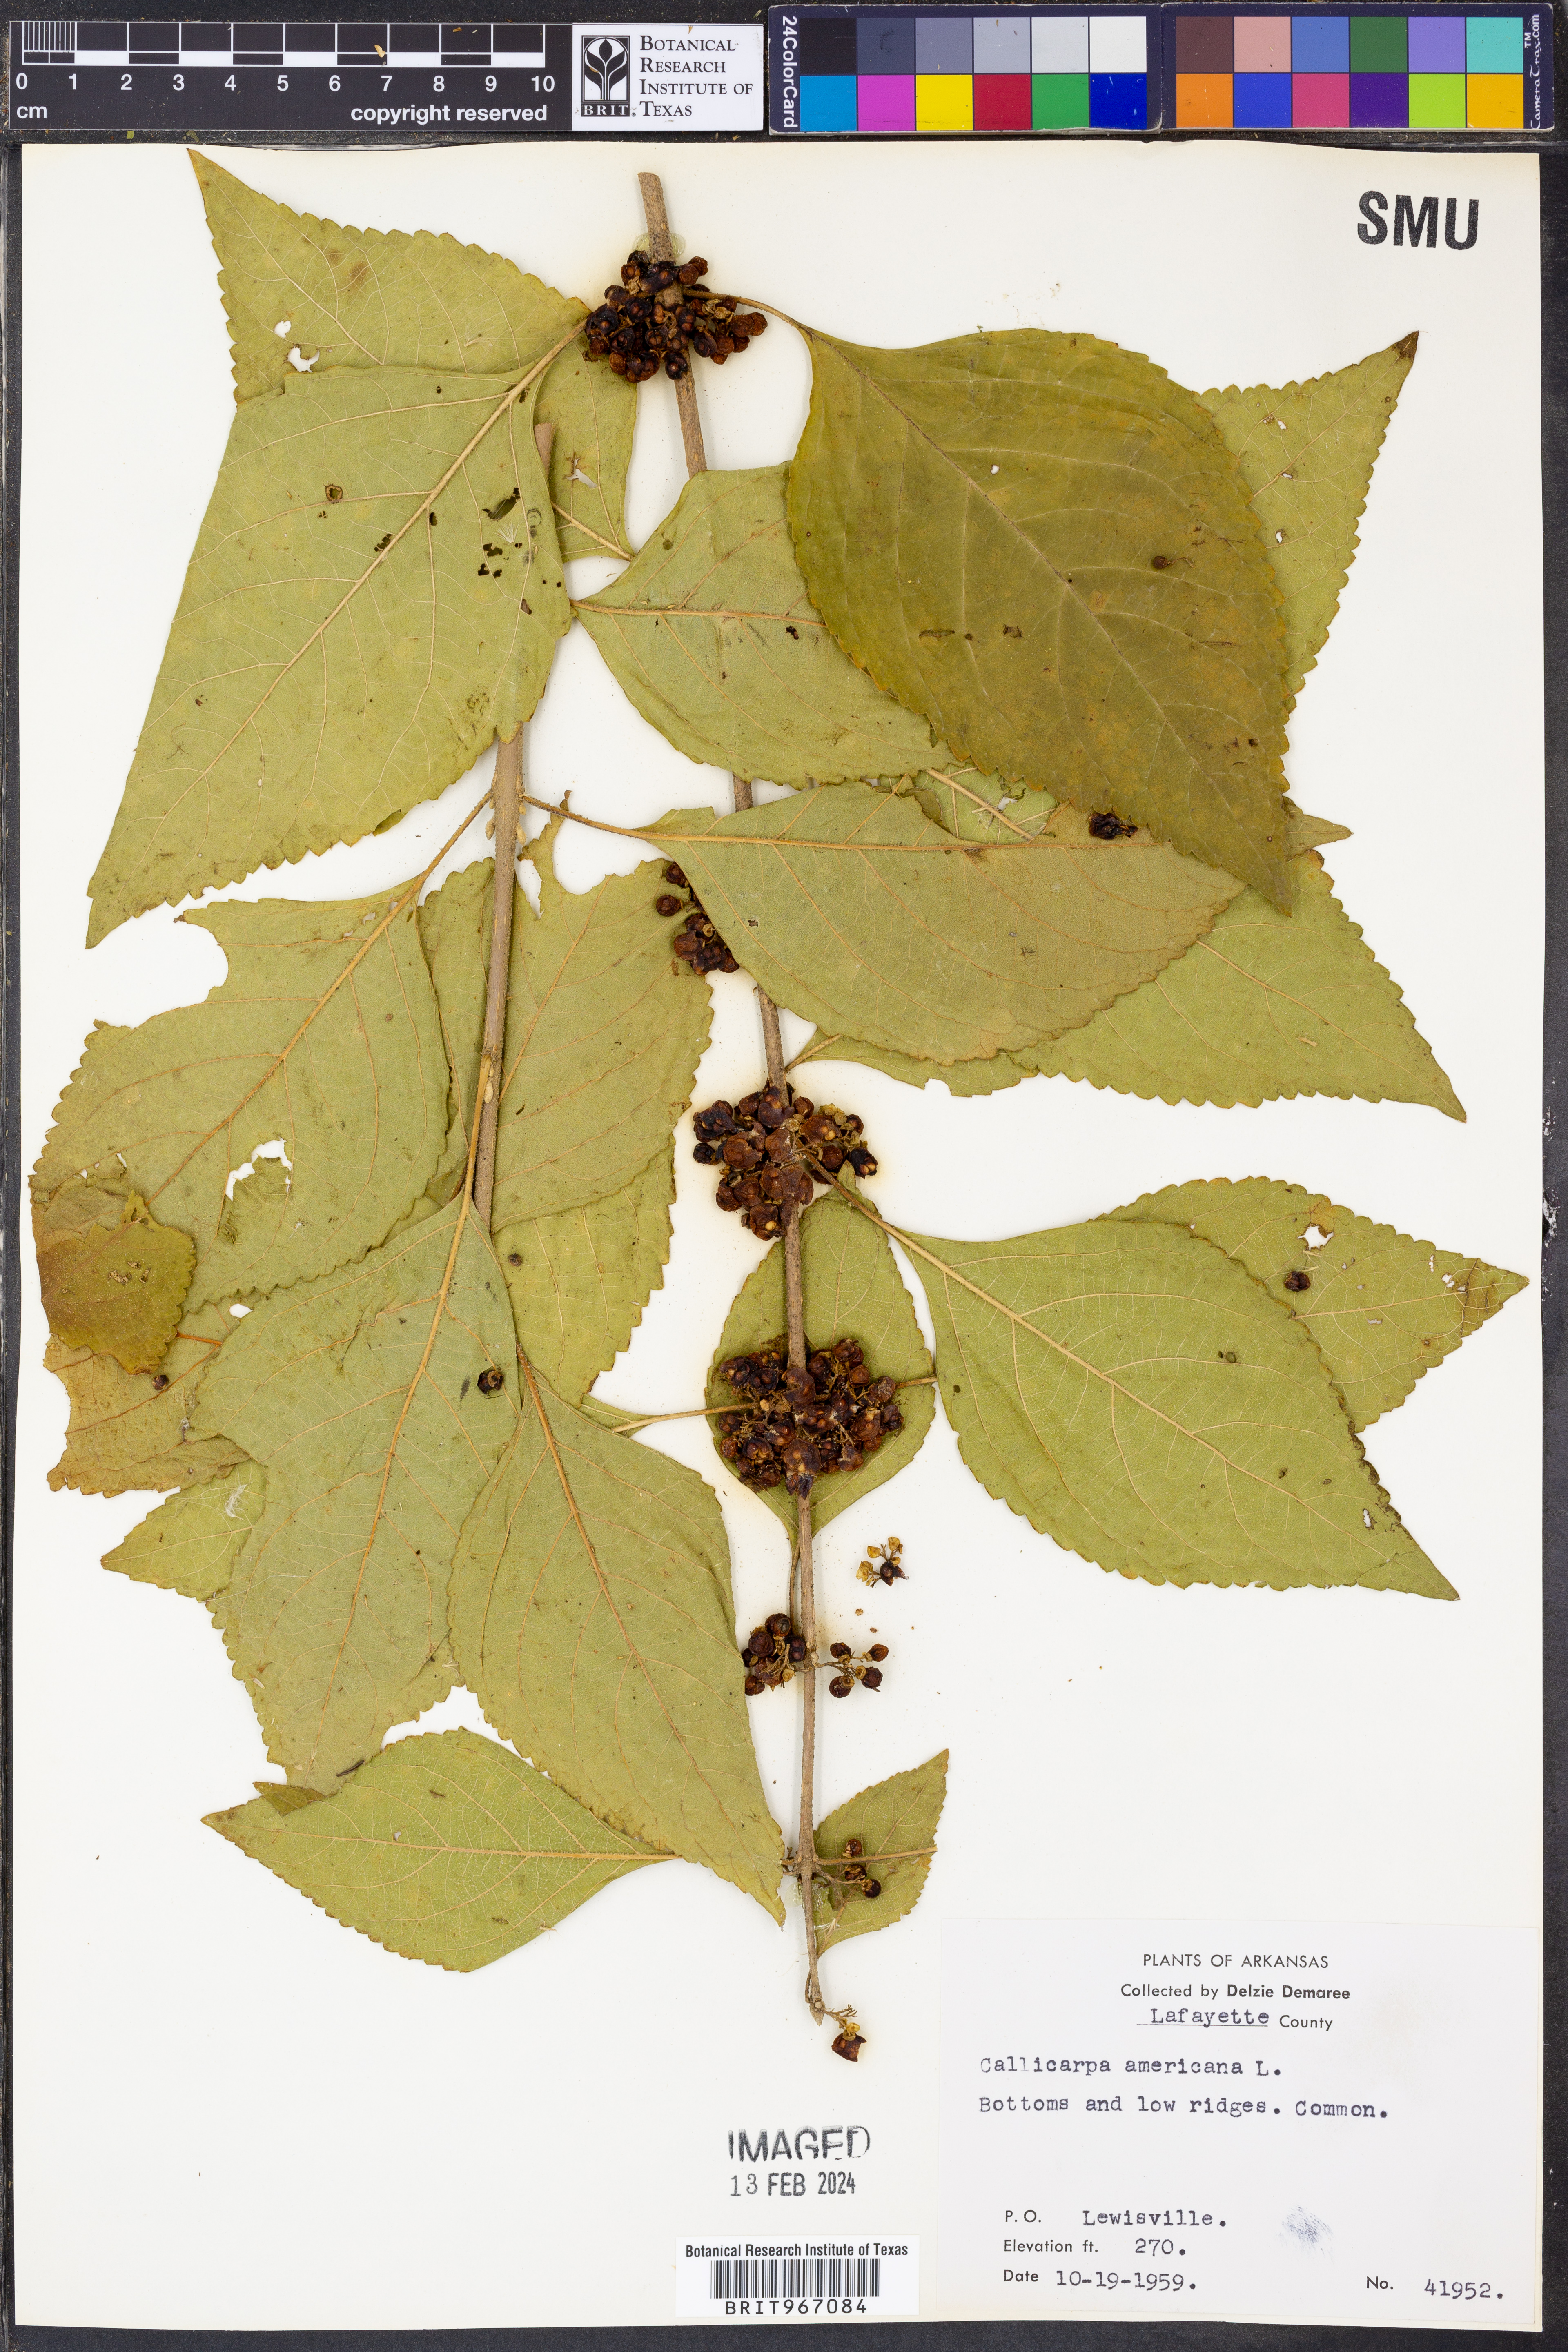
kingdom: Plantae
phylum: Tracheophyta
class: Magnoliopsida
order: Lamiales
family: Lamiaceae
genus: Callicarpa
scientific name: Callicarpa americana
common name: American beautyberry
